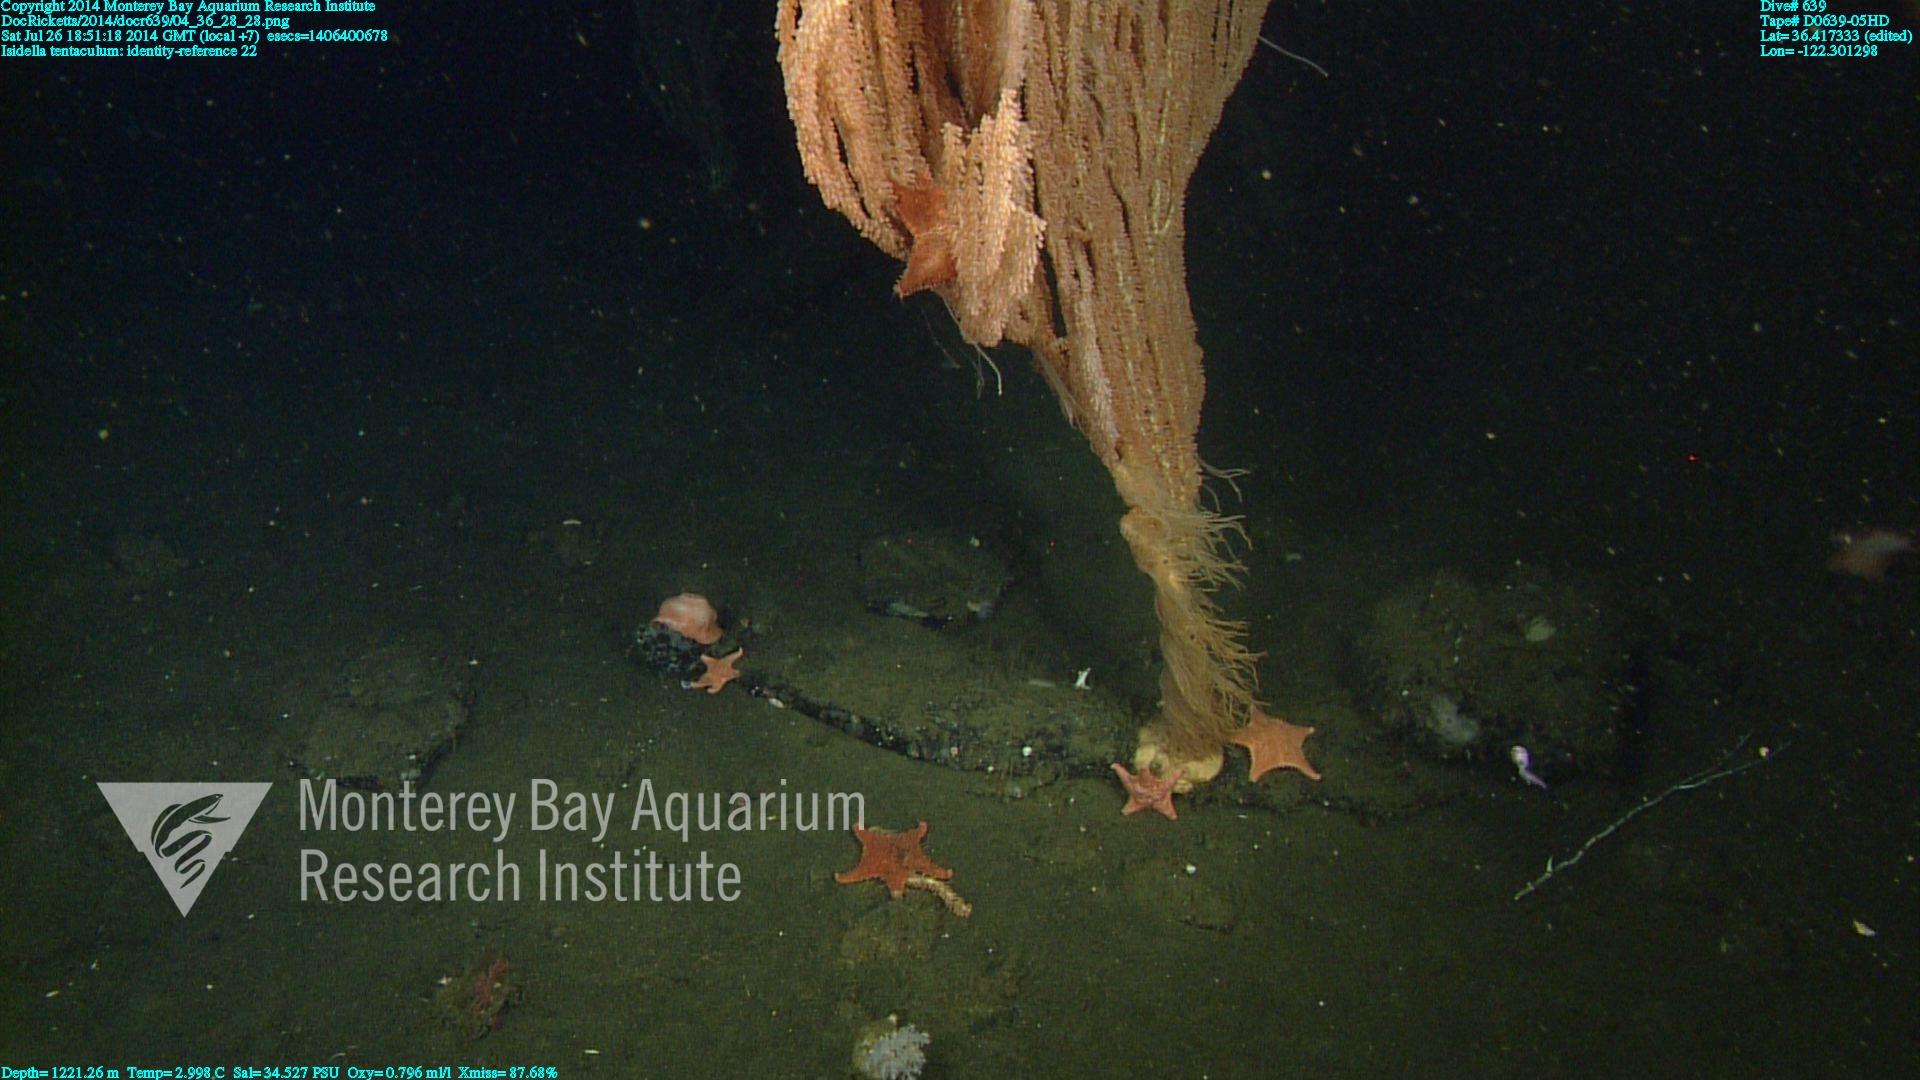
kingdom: Animalia
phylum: Cnidaria
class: Anthozoa
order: Scleralcyonacea
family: Keratoisididae
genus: Isidella
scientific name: Isidella tentaculum
